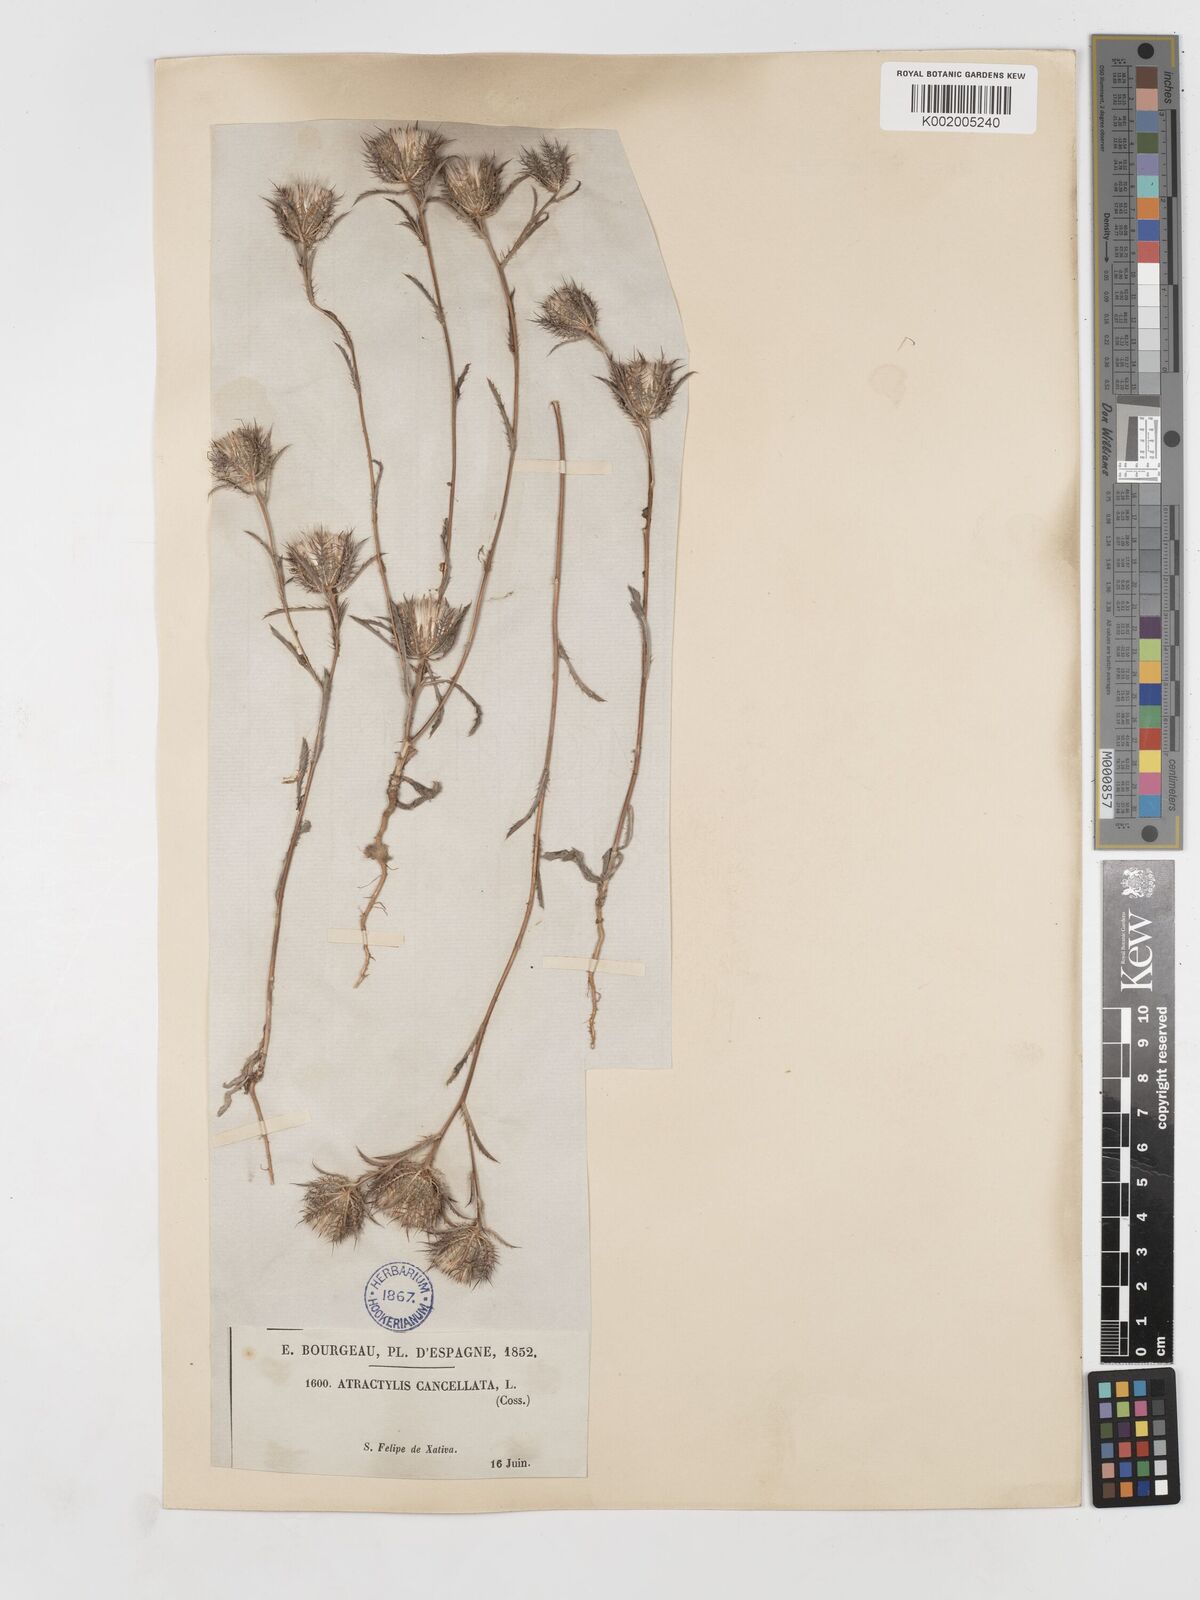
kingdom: Plantae
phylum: Tracheophyta
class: Magnoliopsida
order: Asterales
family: Asteraceae
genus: Atractylis
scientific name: Atractylis cancellata
